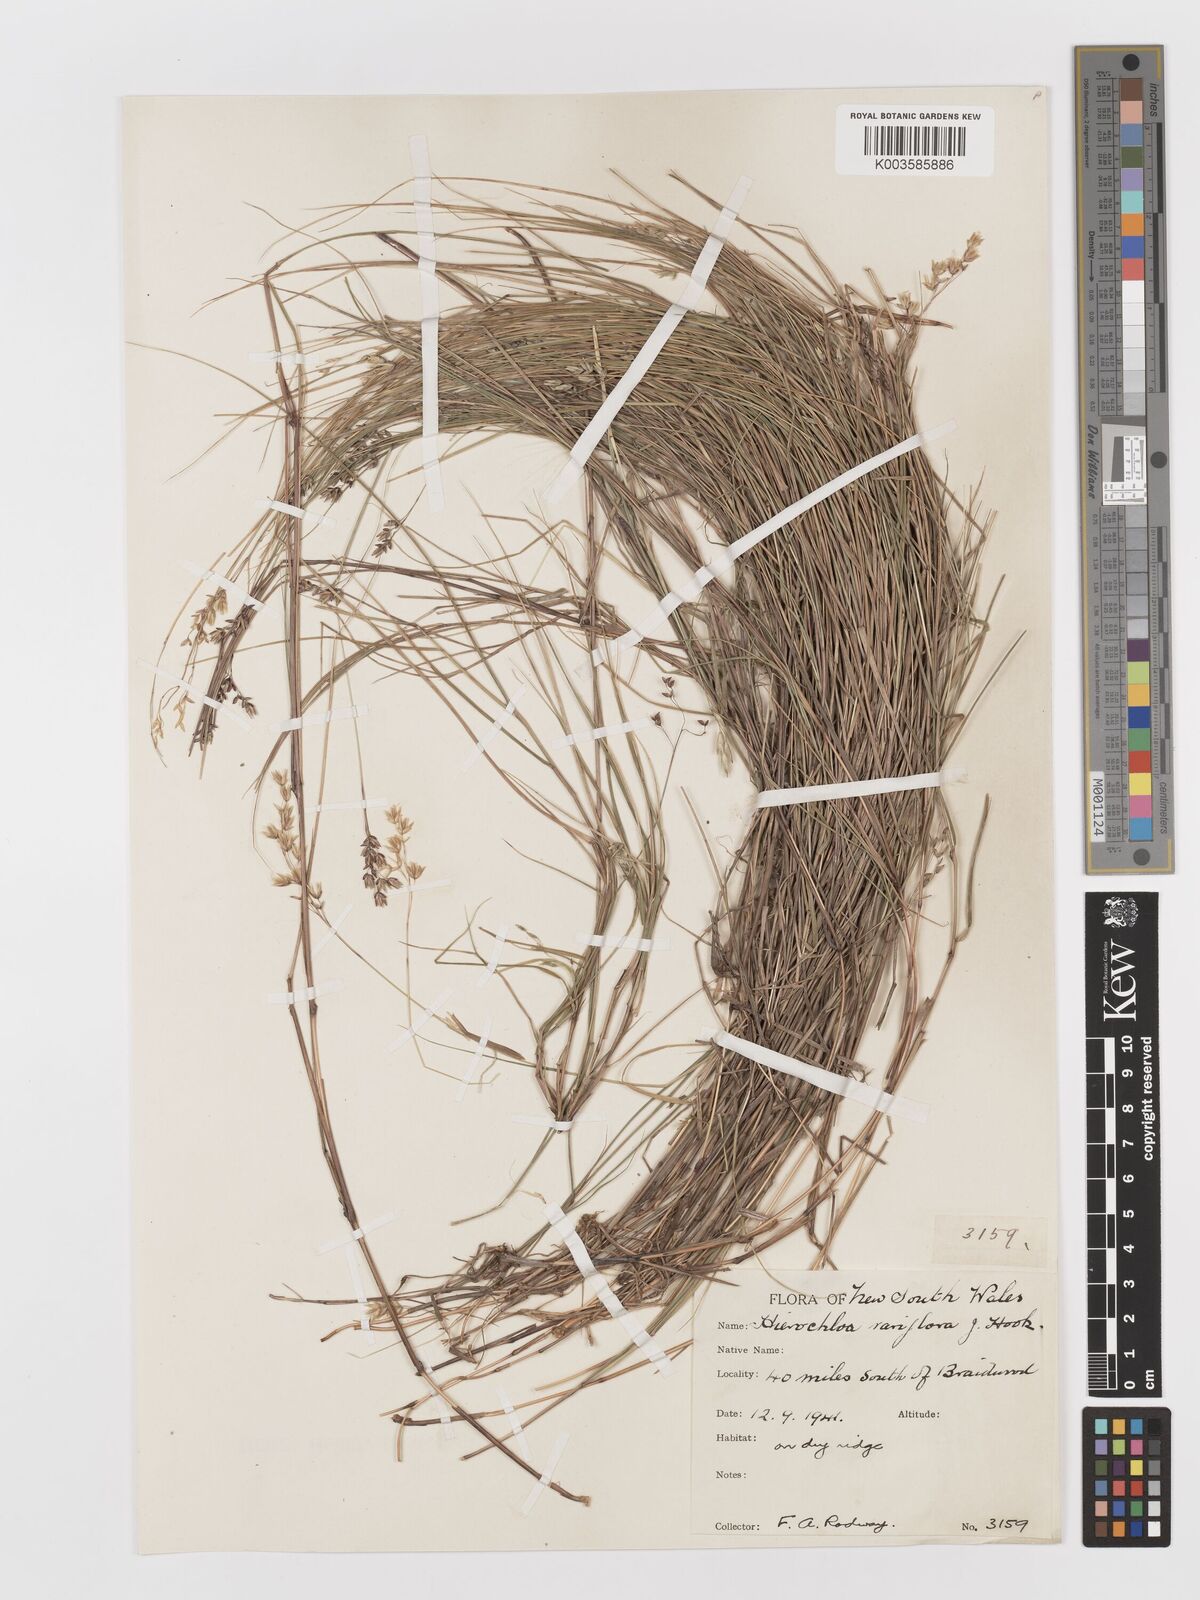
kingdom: Plantae
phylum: Tracheophyta
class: Liliopsida
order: Poales
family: Poaceae
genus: Anthoxanthum
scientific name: Anthoxanthum rariflorum
